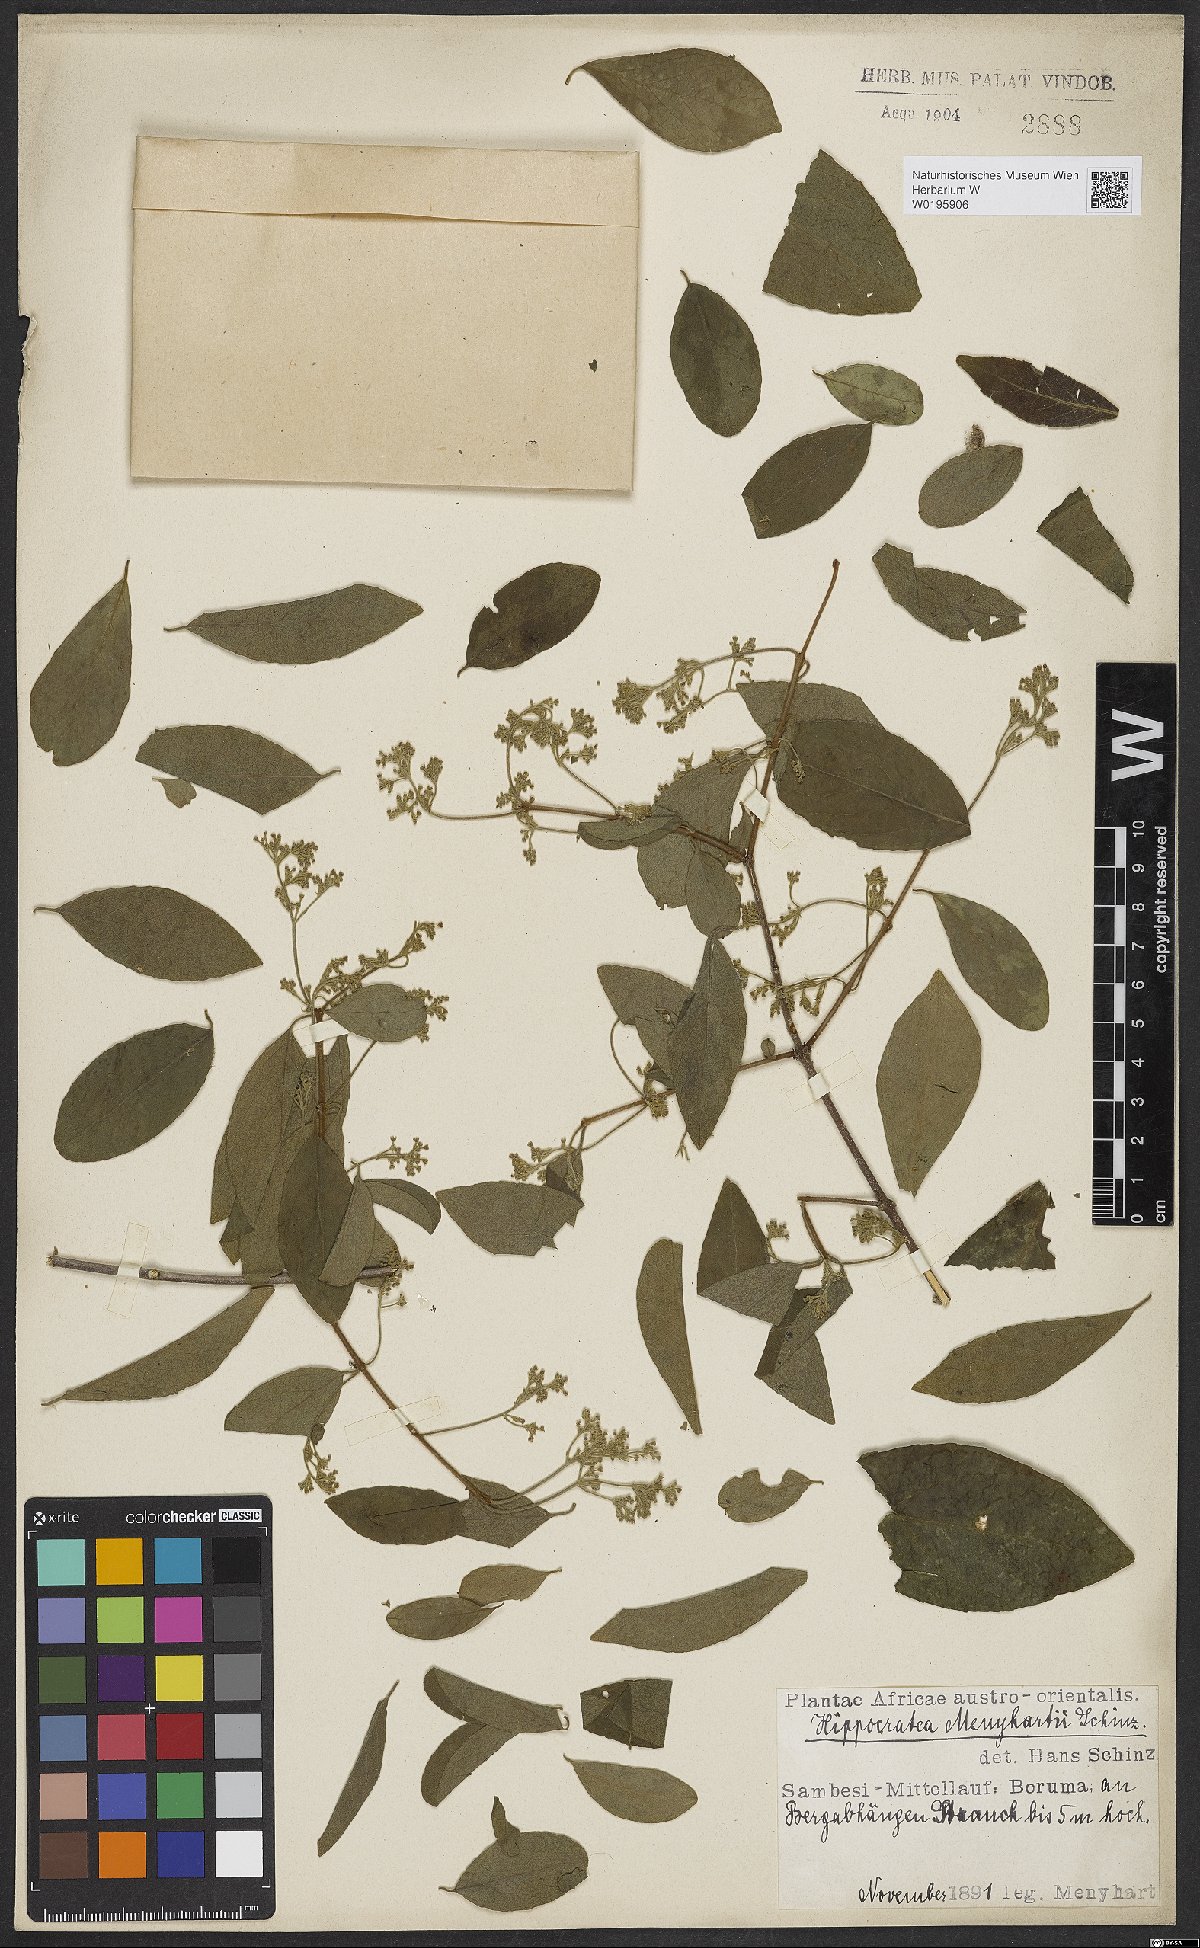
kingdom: Plantae
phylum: Tracheophyta
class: Magnoliopsida
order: Celastrales
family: Celastraceae
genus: Reissantia
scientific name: Reissantia buchananii
